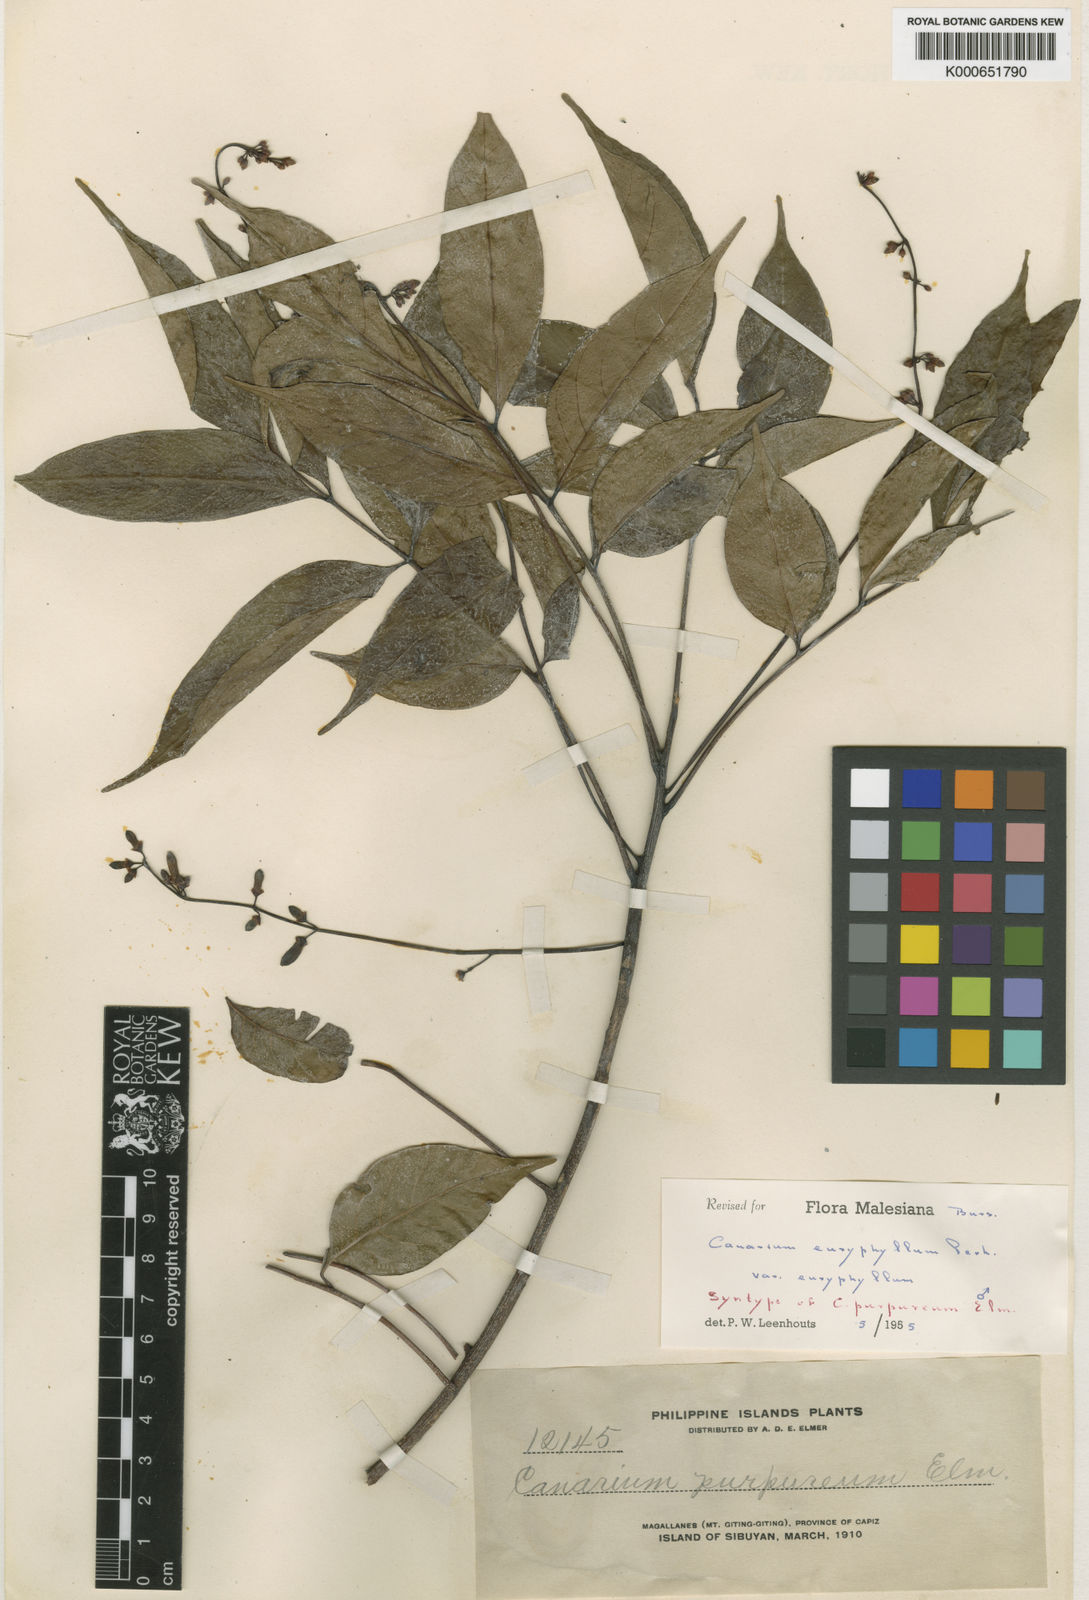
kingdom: Plantae
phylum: Tracheophyta
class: Magnoliopsida
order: Sapindales
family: Burseraceae
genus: Canarium
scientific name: Canarium euryphyllum
